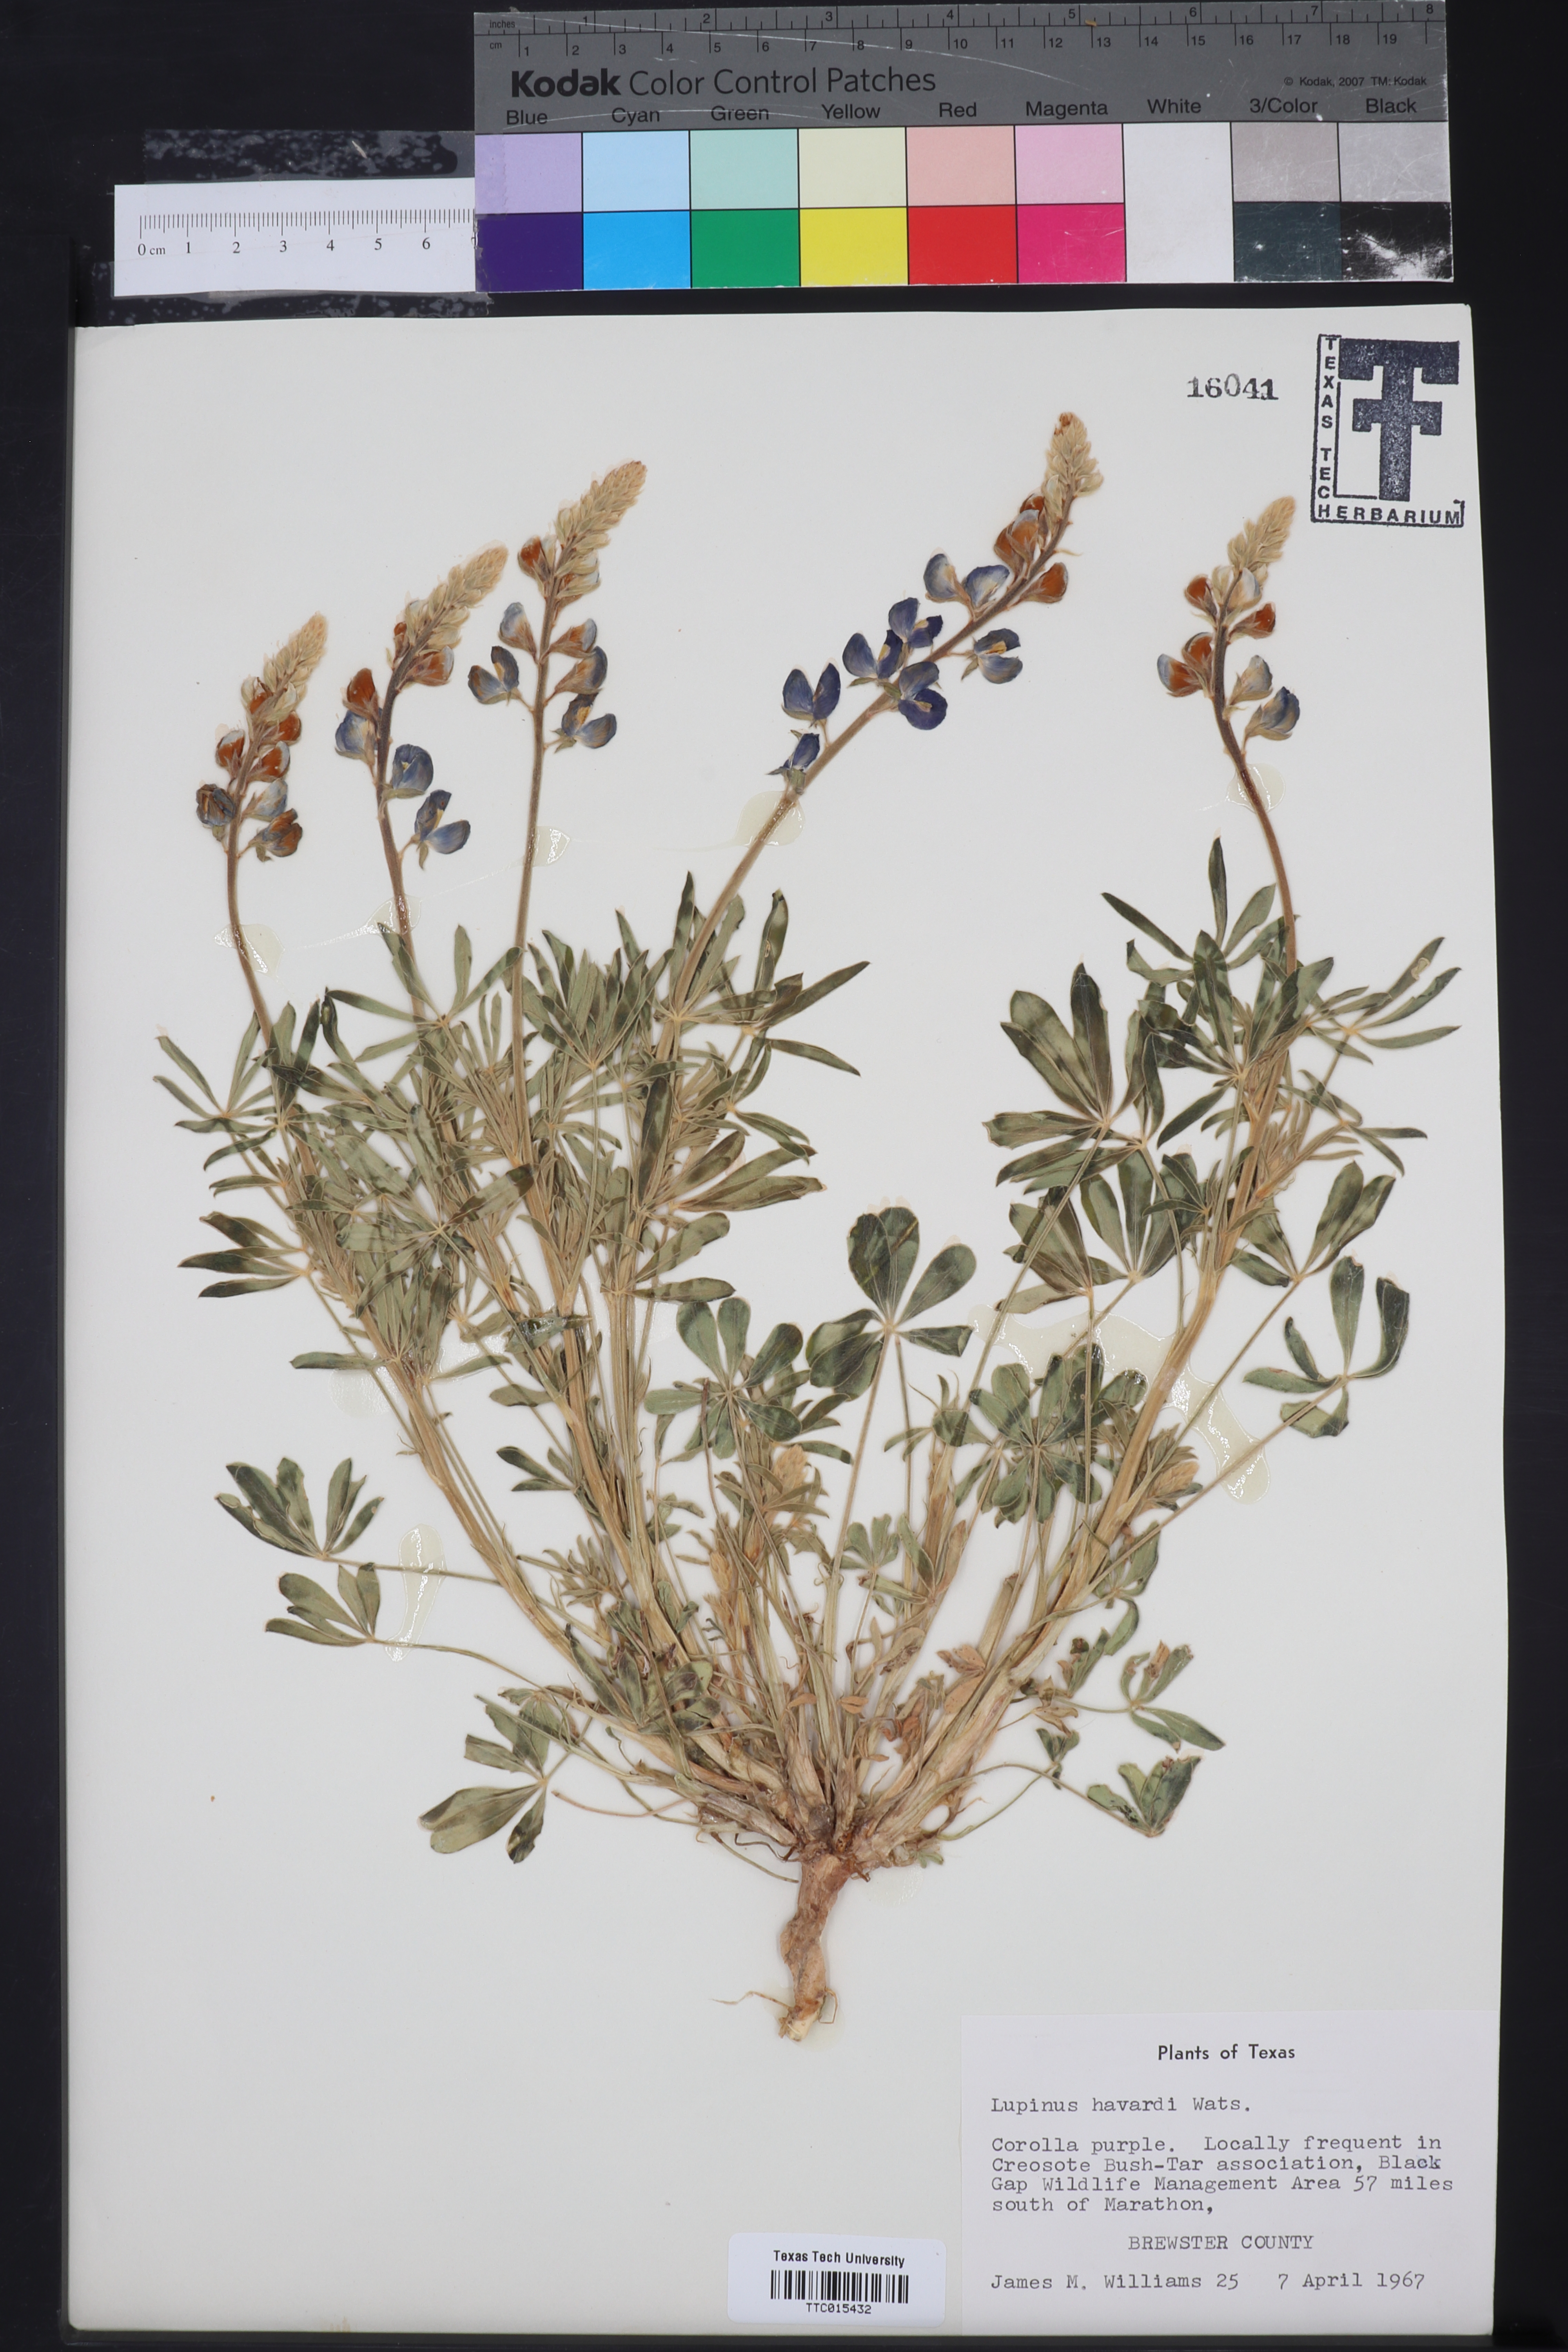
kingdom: Plantae
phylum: Tracheophyta
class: Magnoliopsida
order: Fabales
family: Fabaceae
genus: Lupinus
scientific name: Lupinus havardii
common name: Chisos bluebonnet
